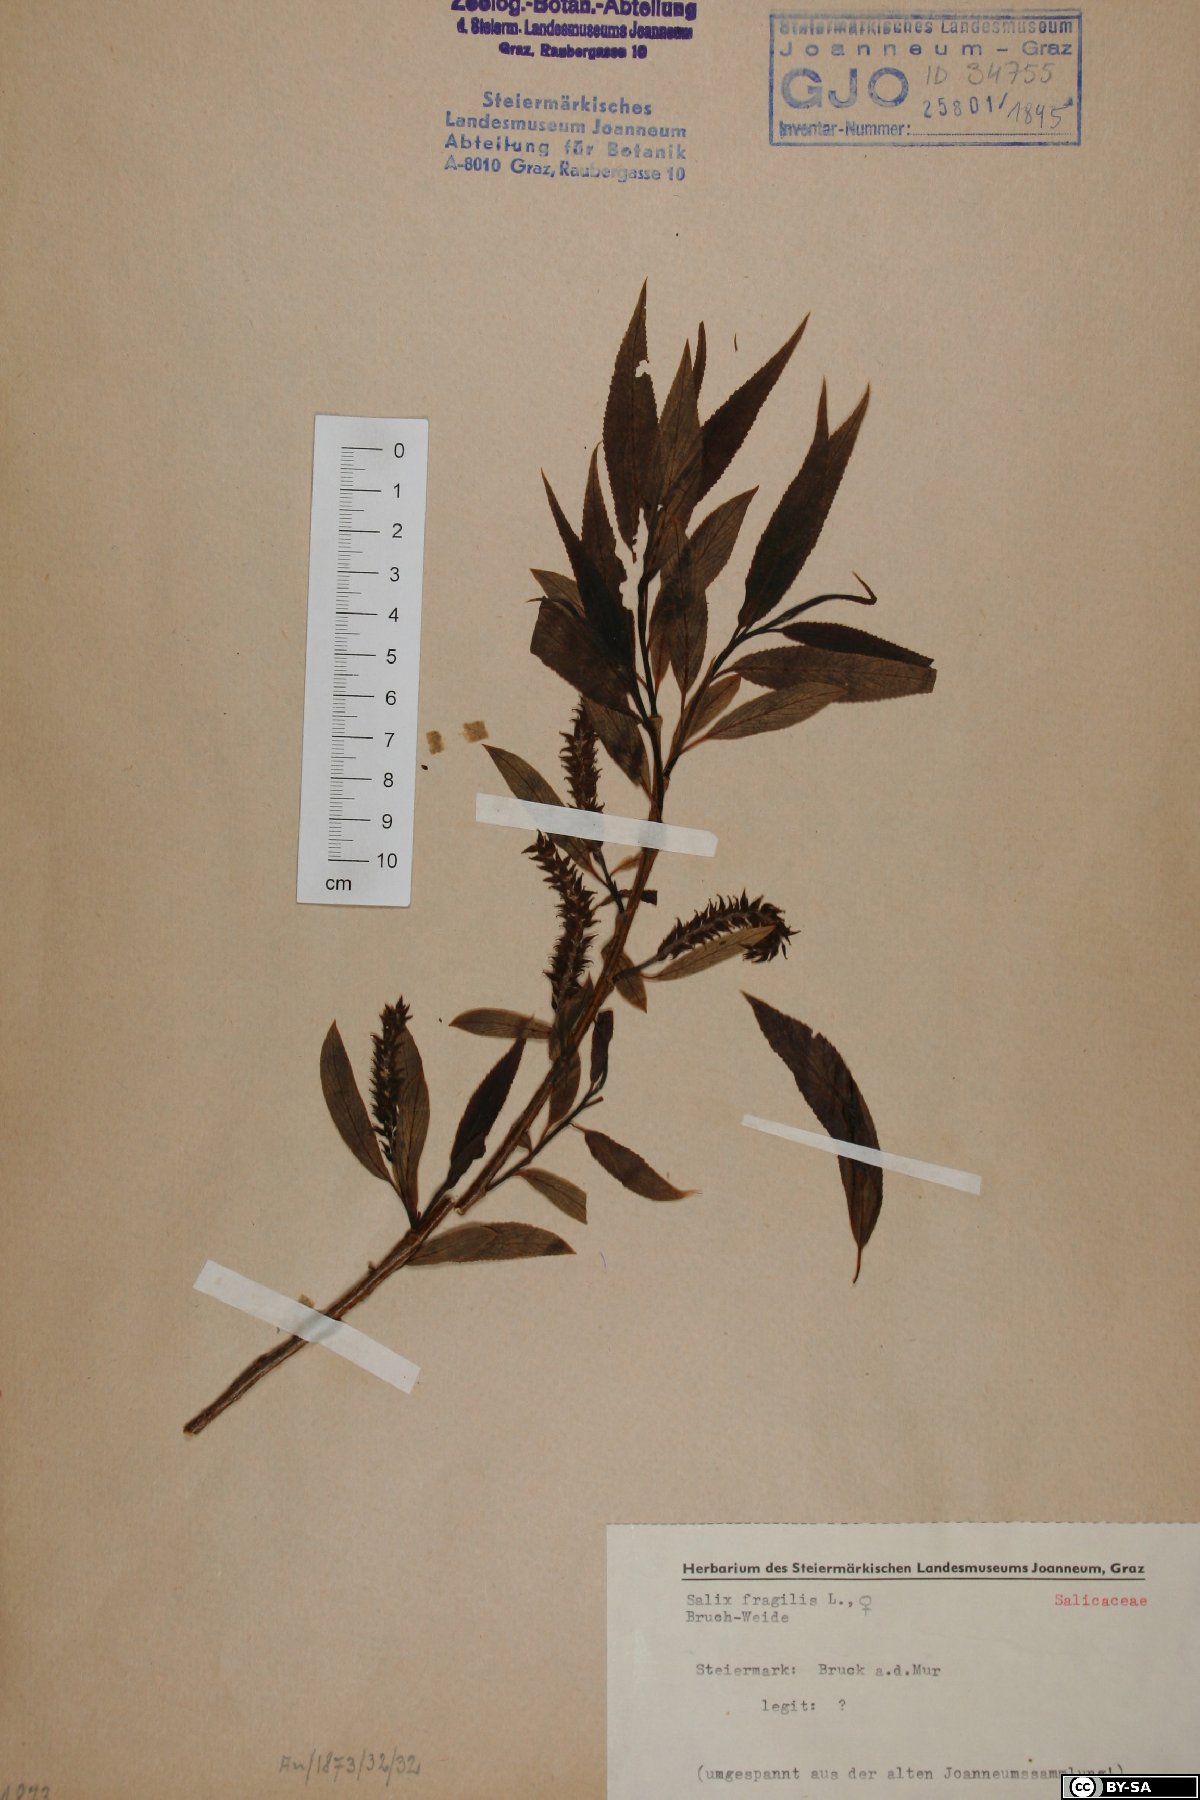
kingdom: Plantae
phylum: Tracheophyta
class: Magnoliopsida
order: Malpighiales
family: Salicaceae
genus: Salix
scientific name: Salix fragilis
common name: Crack willow
